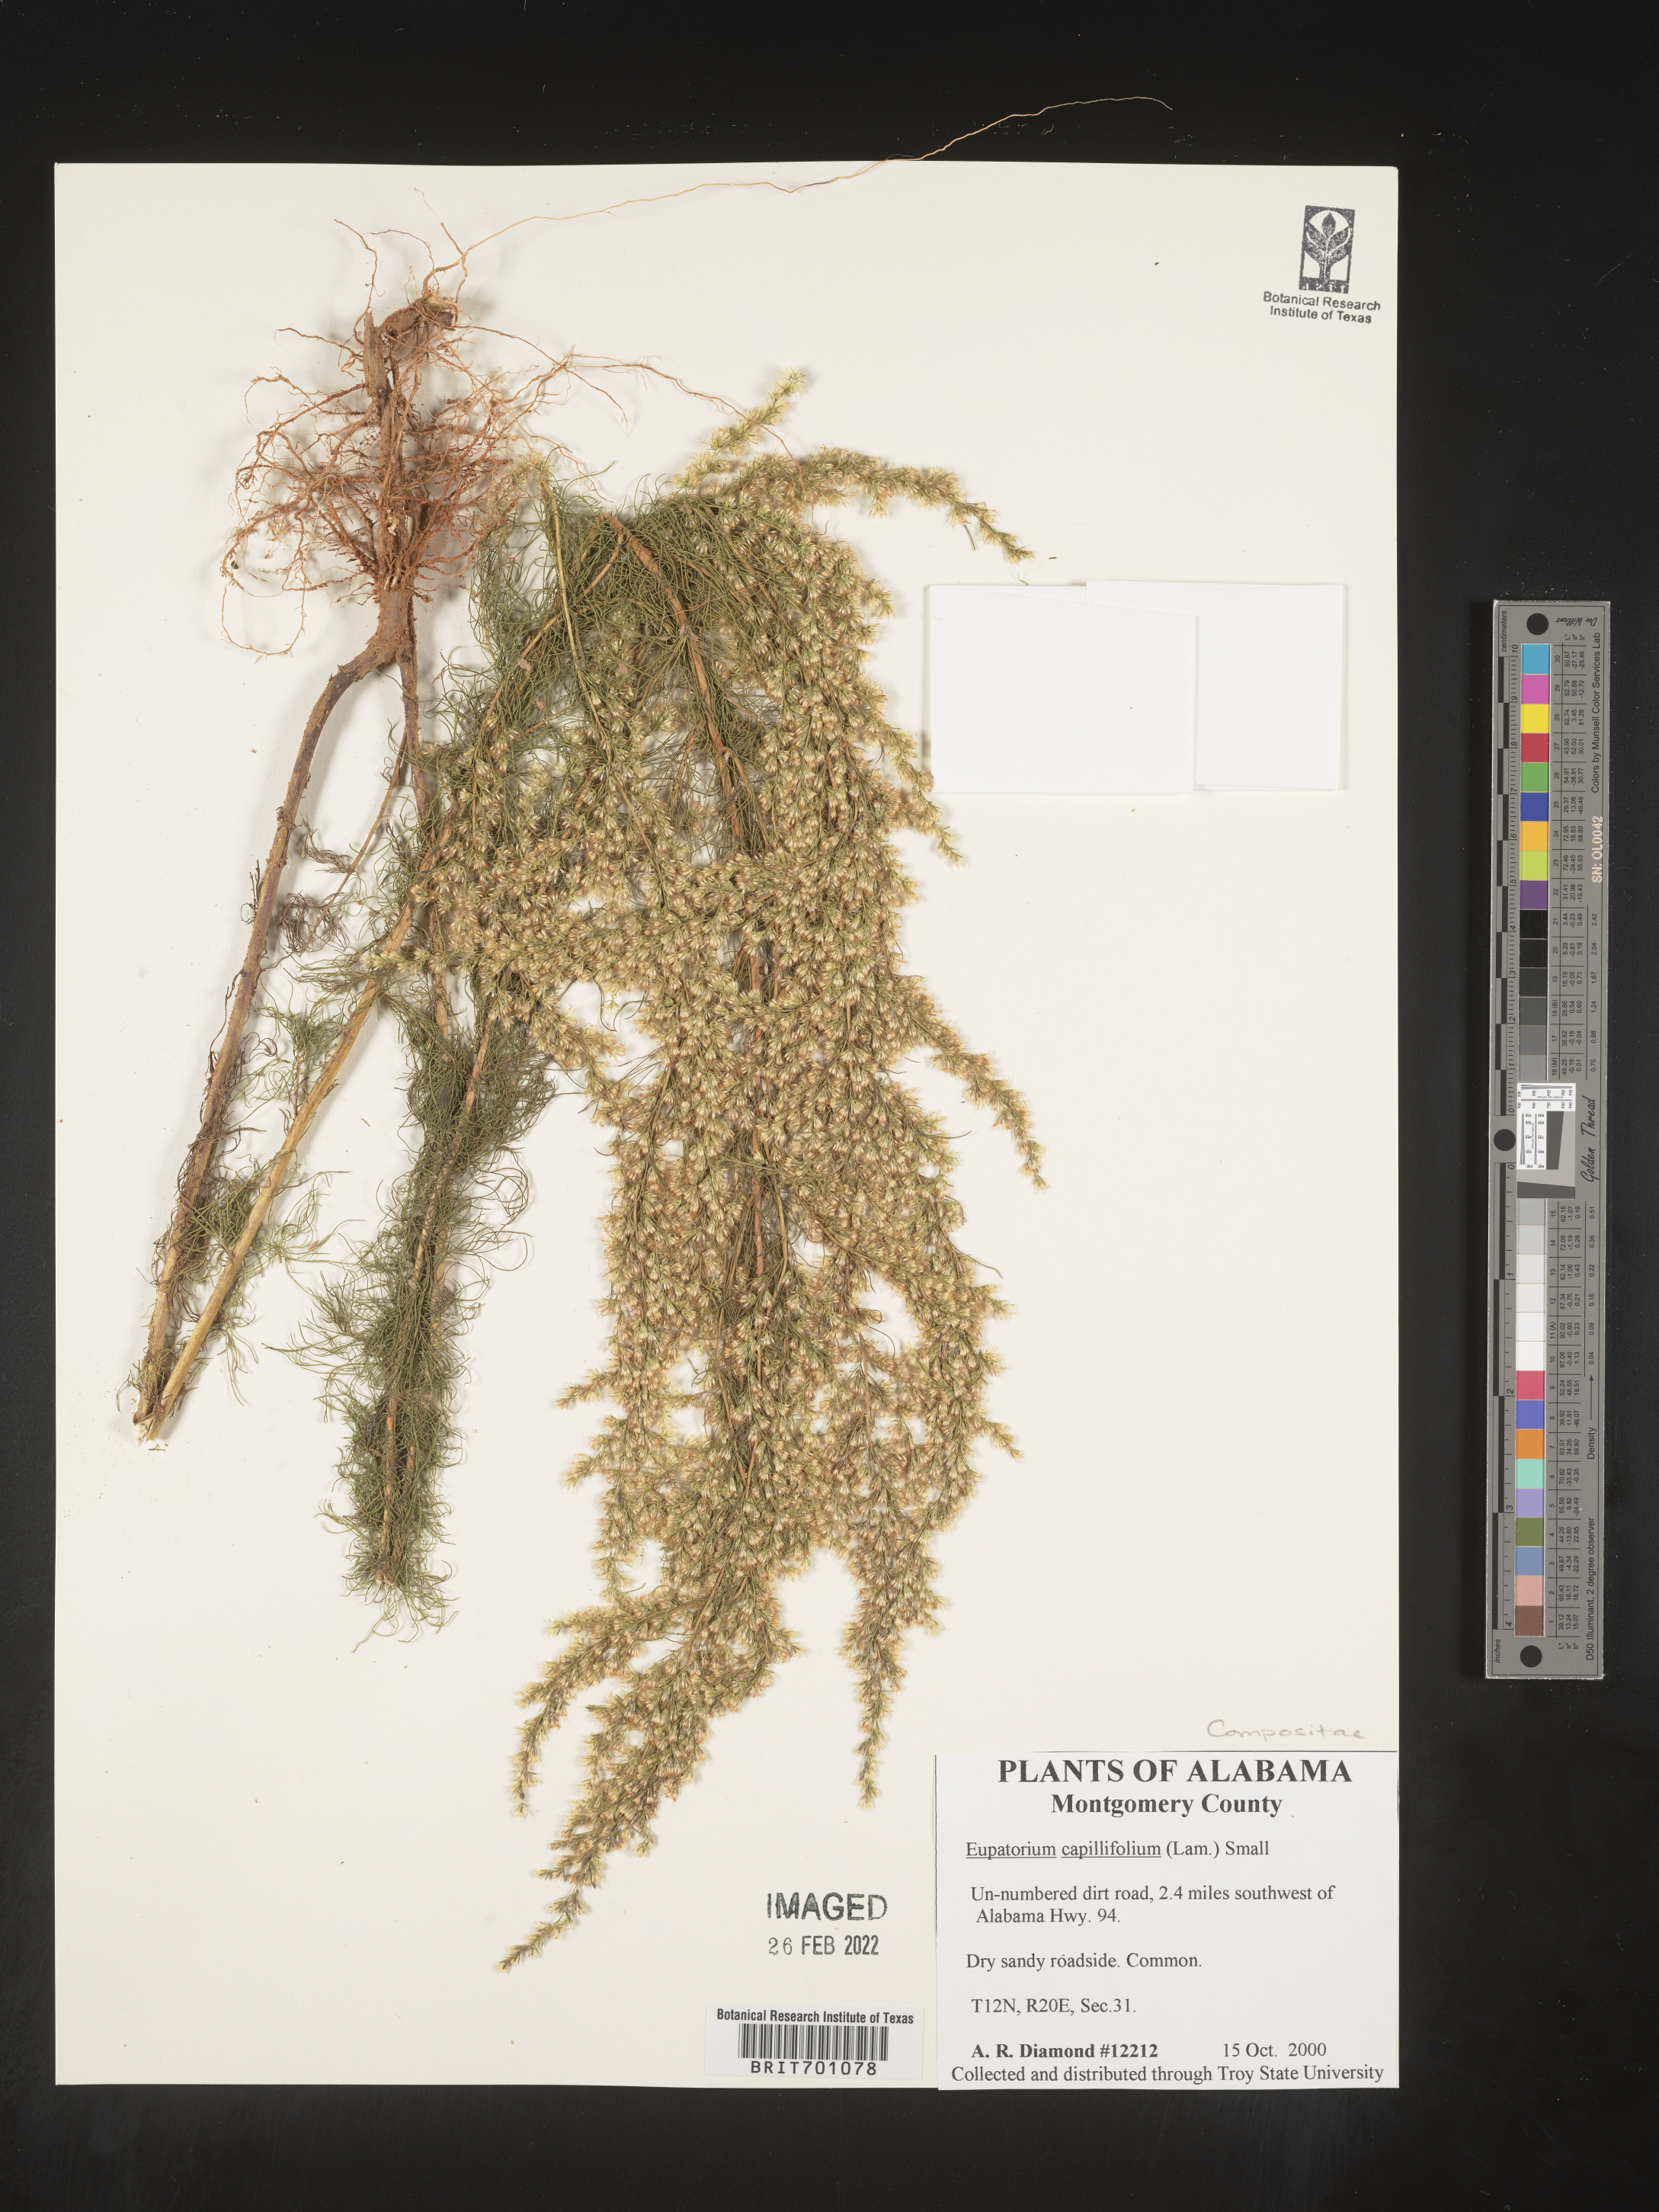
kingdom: Plantae
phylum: Tracheophyta
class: Magnoliopsida
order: Asterales
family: Asteraceae
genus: Eupatorium
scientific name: Eupatorium capillifolium
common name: Dog-fennel
